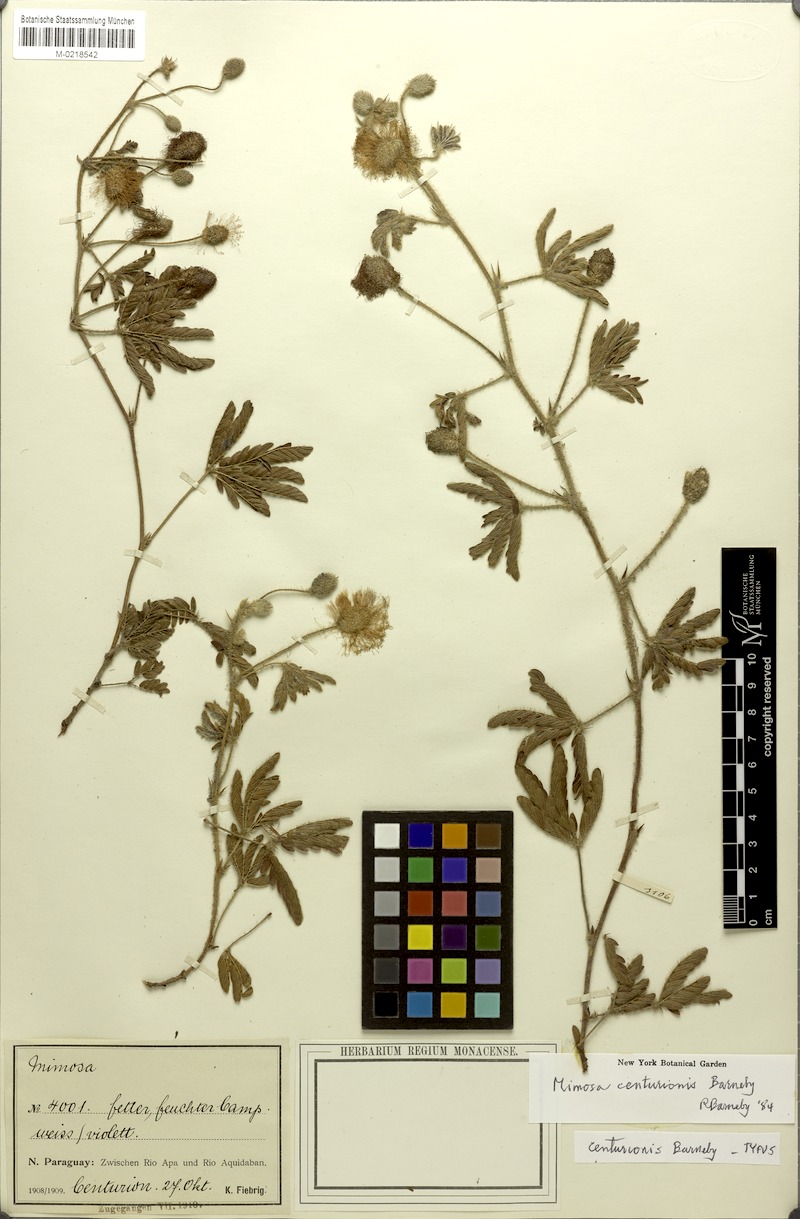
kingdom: Plantae
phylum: Tracheophyta
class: Magnoliopsida
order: Fabales
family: Fabaceae
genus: Mimosa
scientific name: Mimosa centurionis
